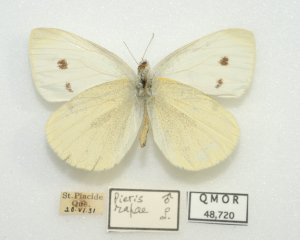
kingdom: Animalia
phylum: Arthropoda
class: Insecta
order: Lepidoptera
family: Pieridae
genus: Pieris
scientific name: Pieris rapae
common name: Cabbage White
